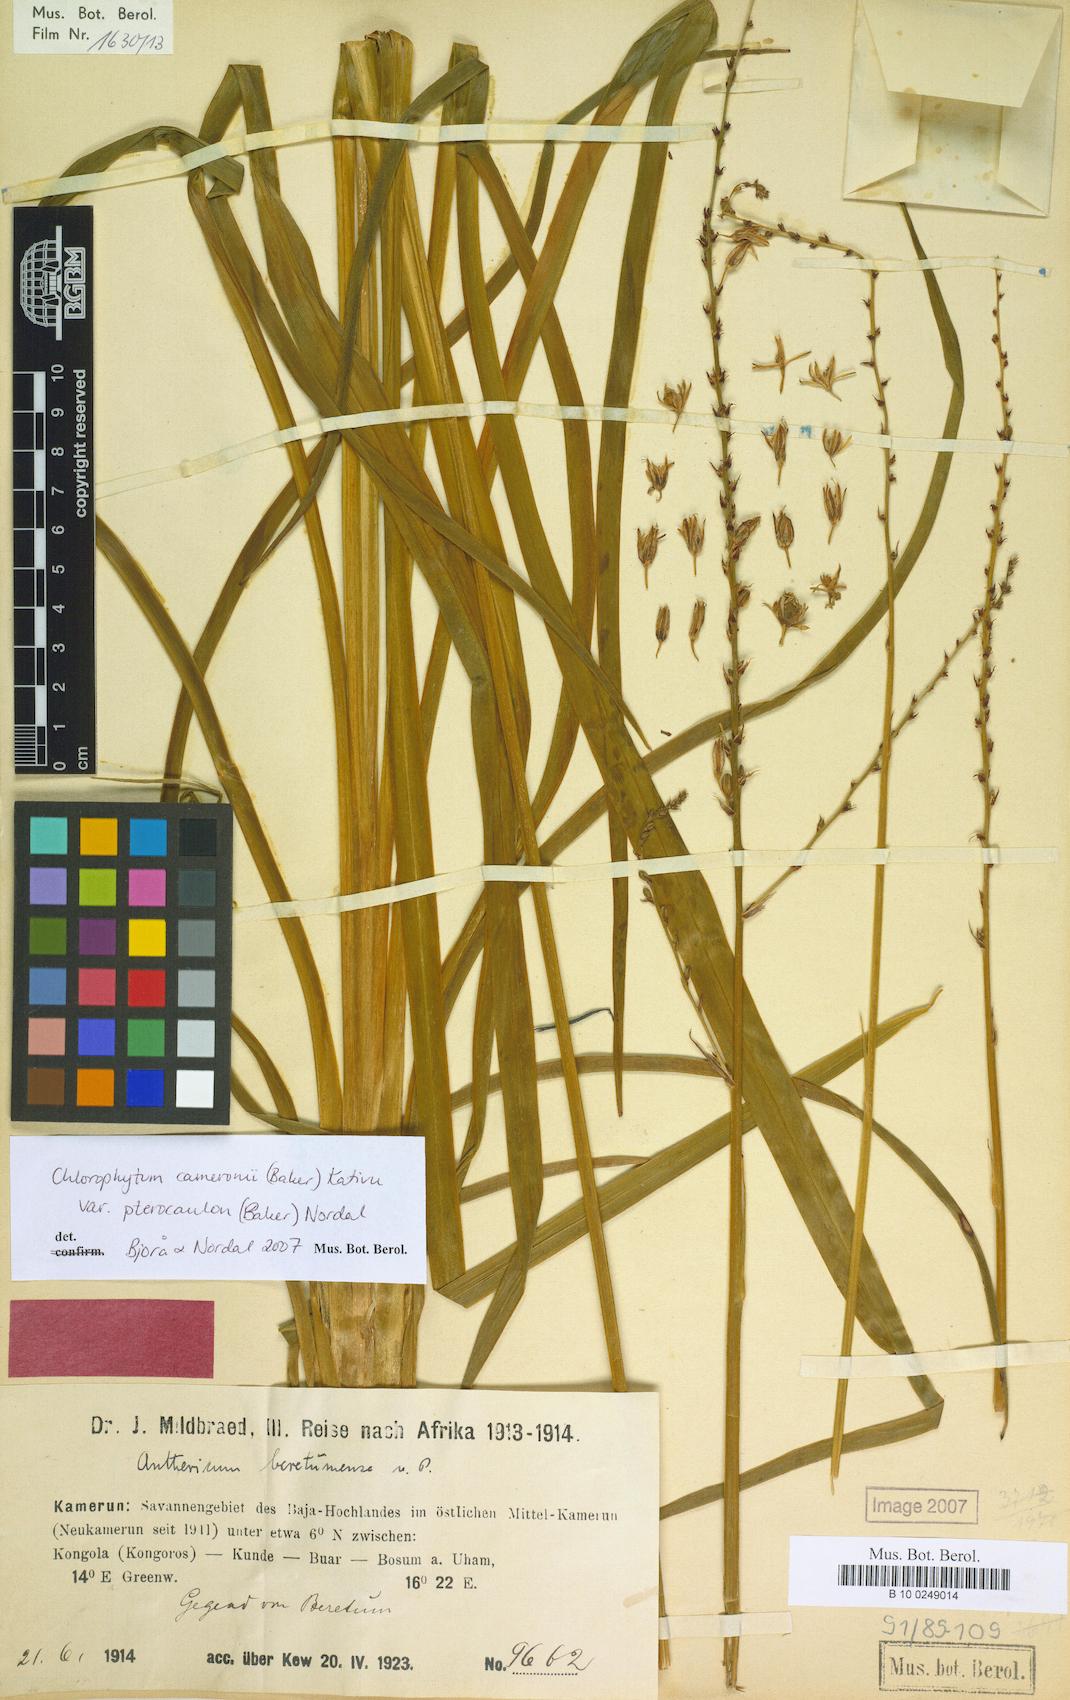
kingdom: Plantae
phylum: Tracheophyta
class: Liliopsida
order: Asparagales
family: Asparagaceae
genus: Chlorophytum
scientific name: Chlorophytum cameronii
